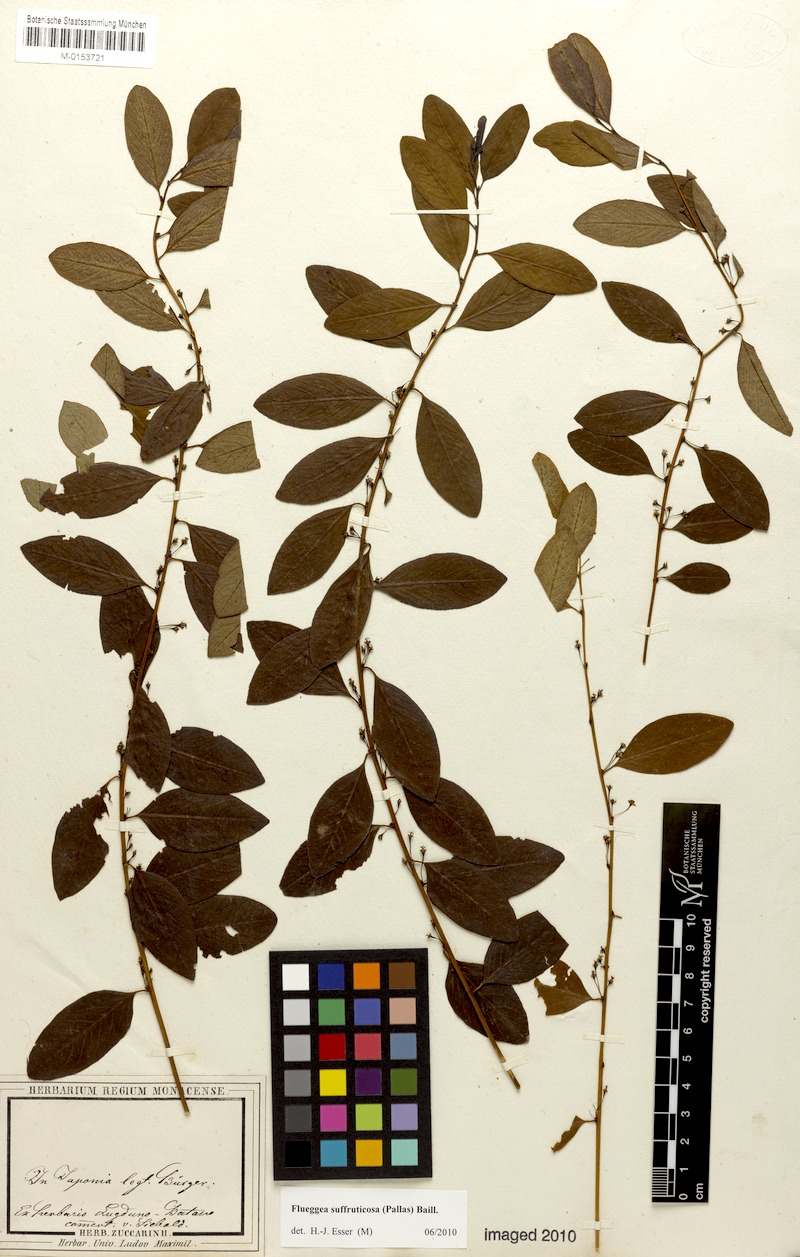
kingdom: Plantae
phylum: Tracheophyta
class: Magnoliopsida
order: Malpighiales
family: Phyllanthaceae
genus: Flueggea
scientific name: Flueggea suffruticosa
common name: Arching bushweed
